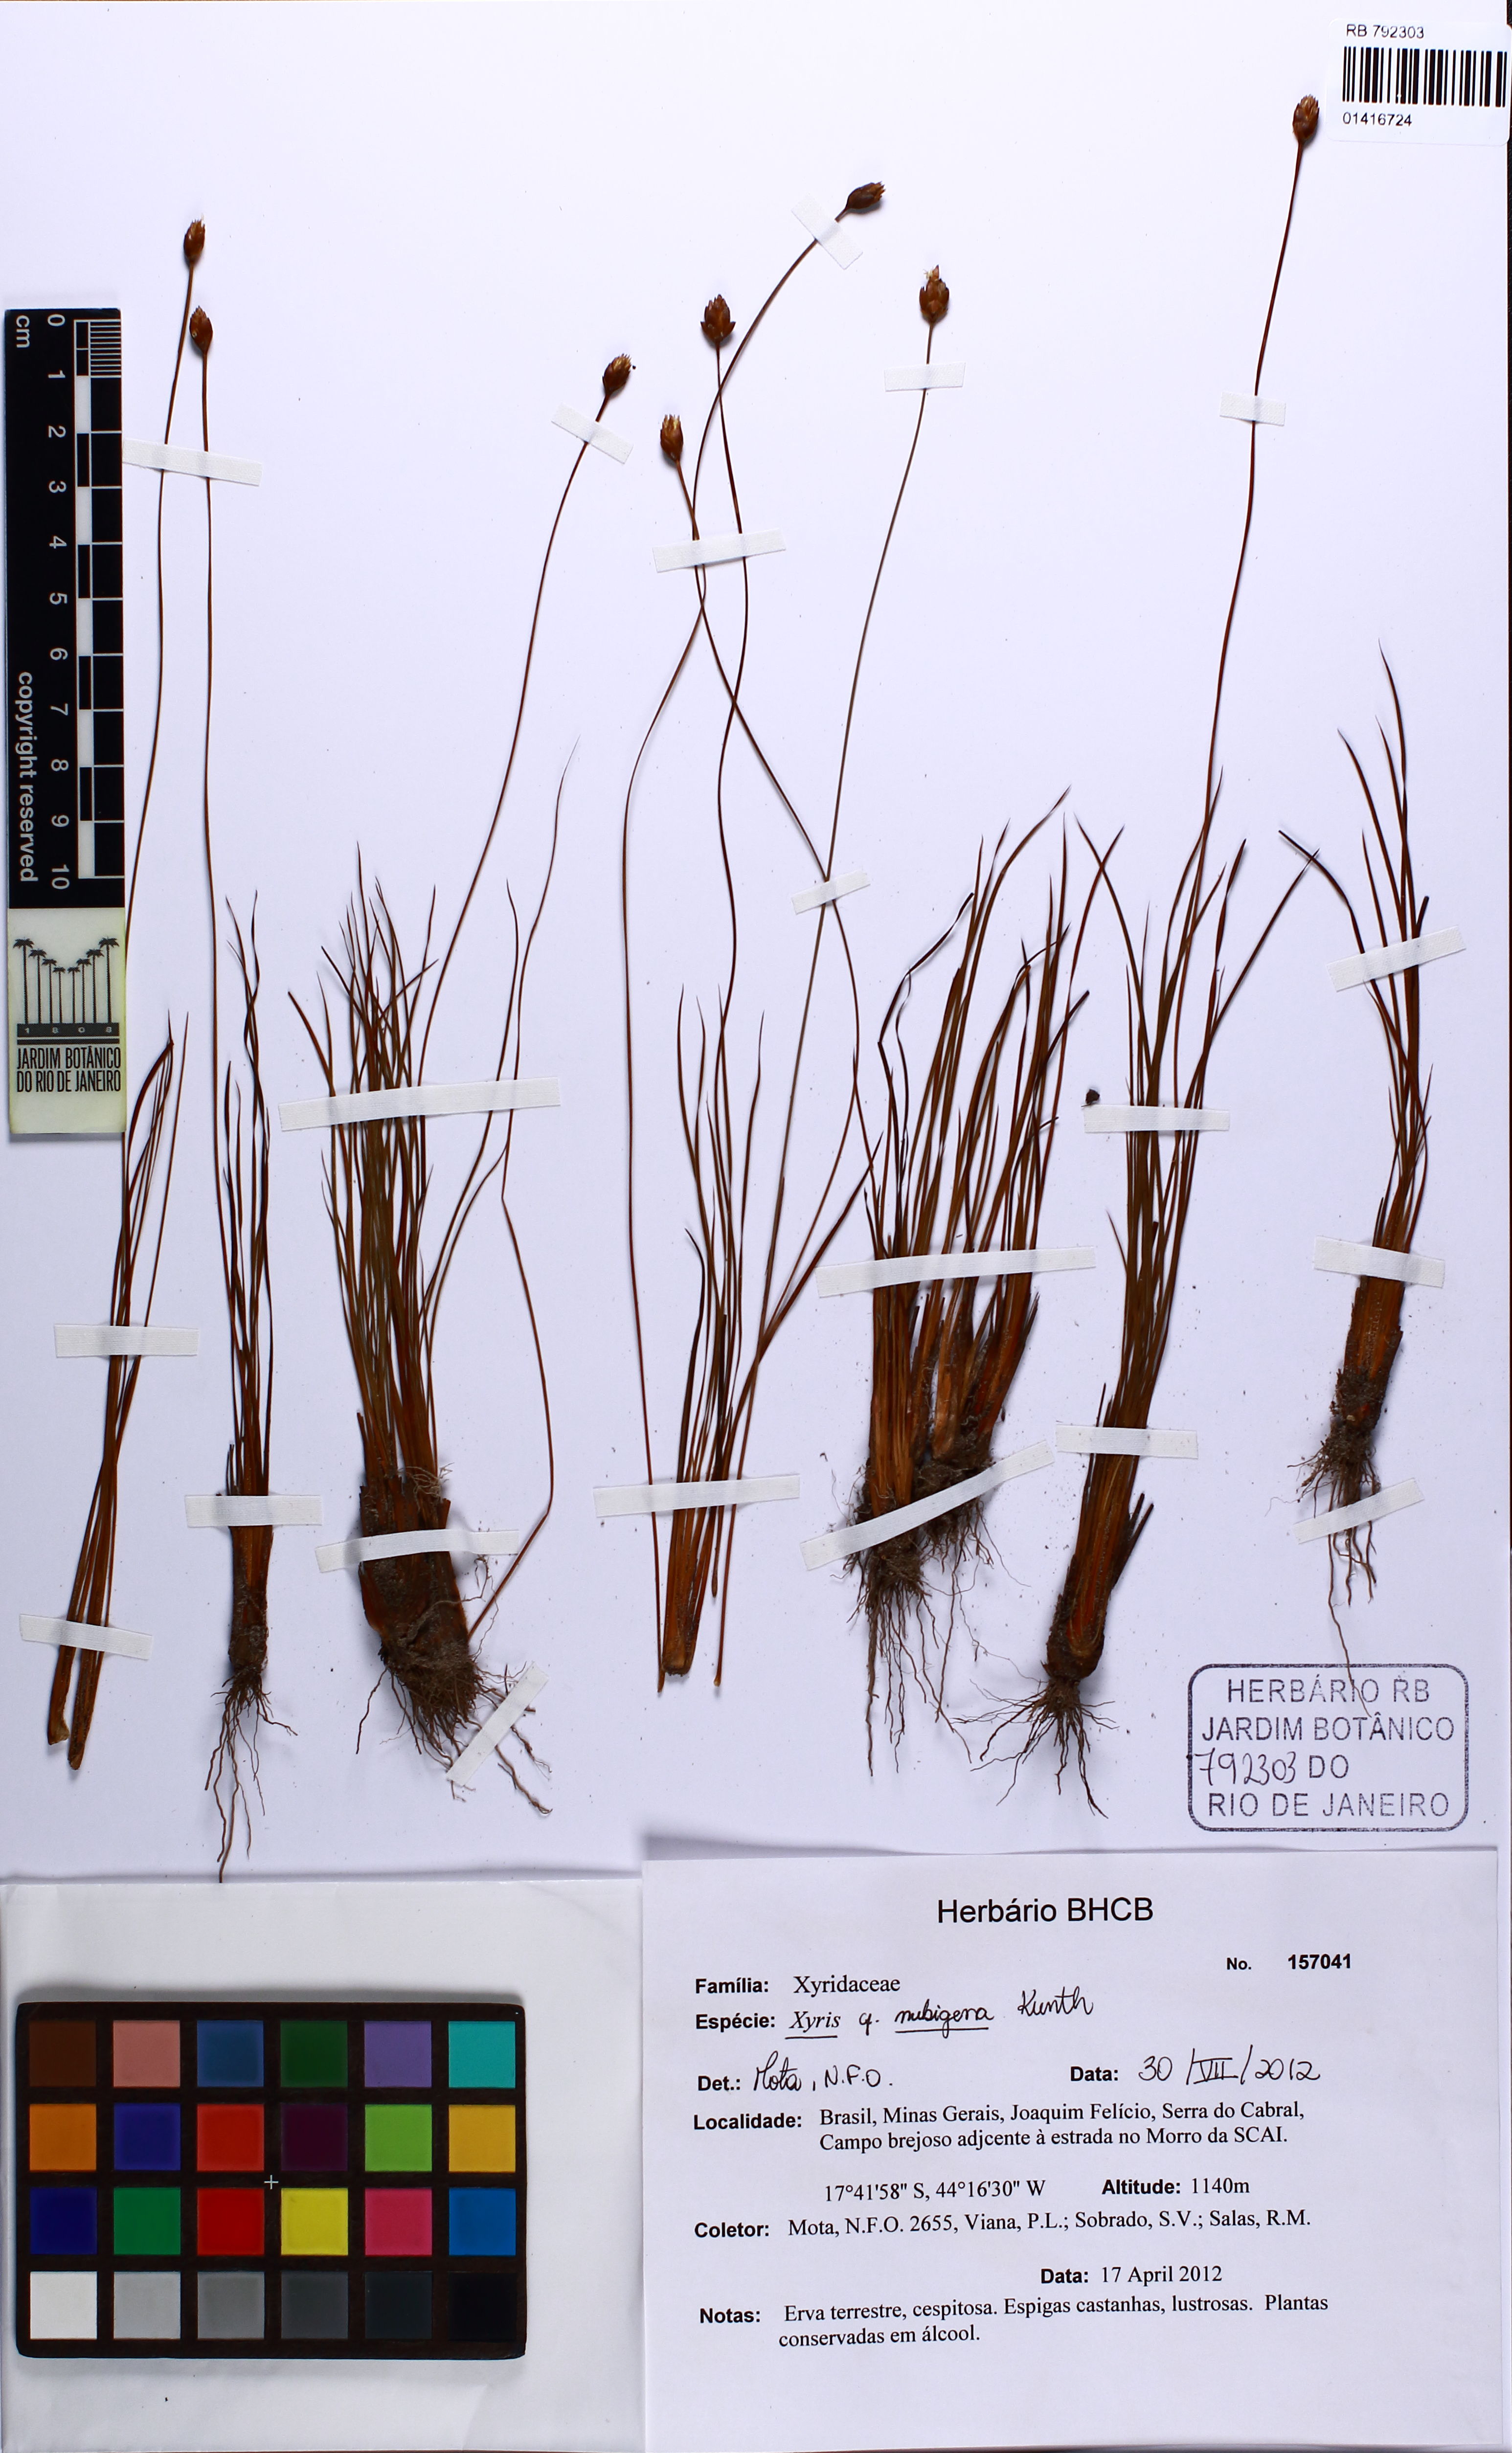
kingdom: Plantae
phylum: Tracheophyta
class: Liliopsida
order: Poales
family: Xyridaceae
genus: Xyris
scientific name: Xyris nubigena
